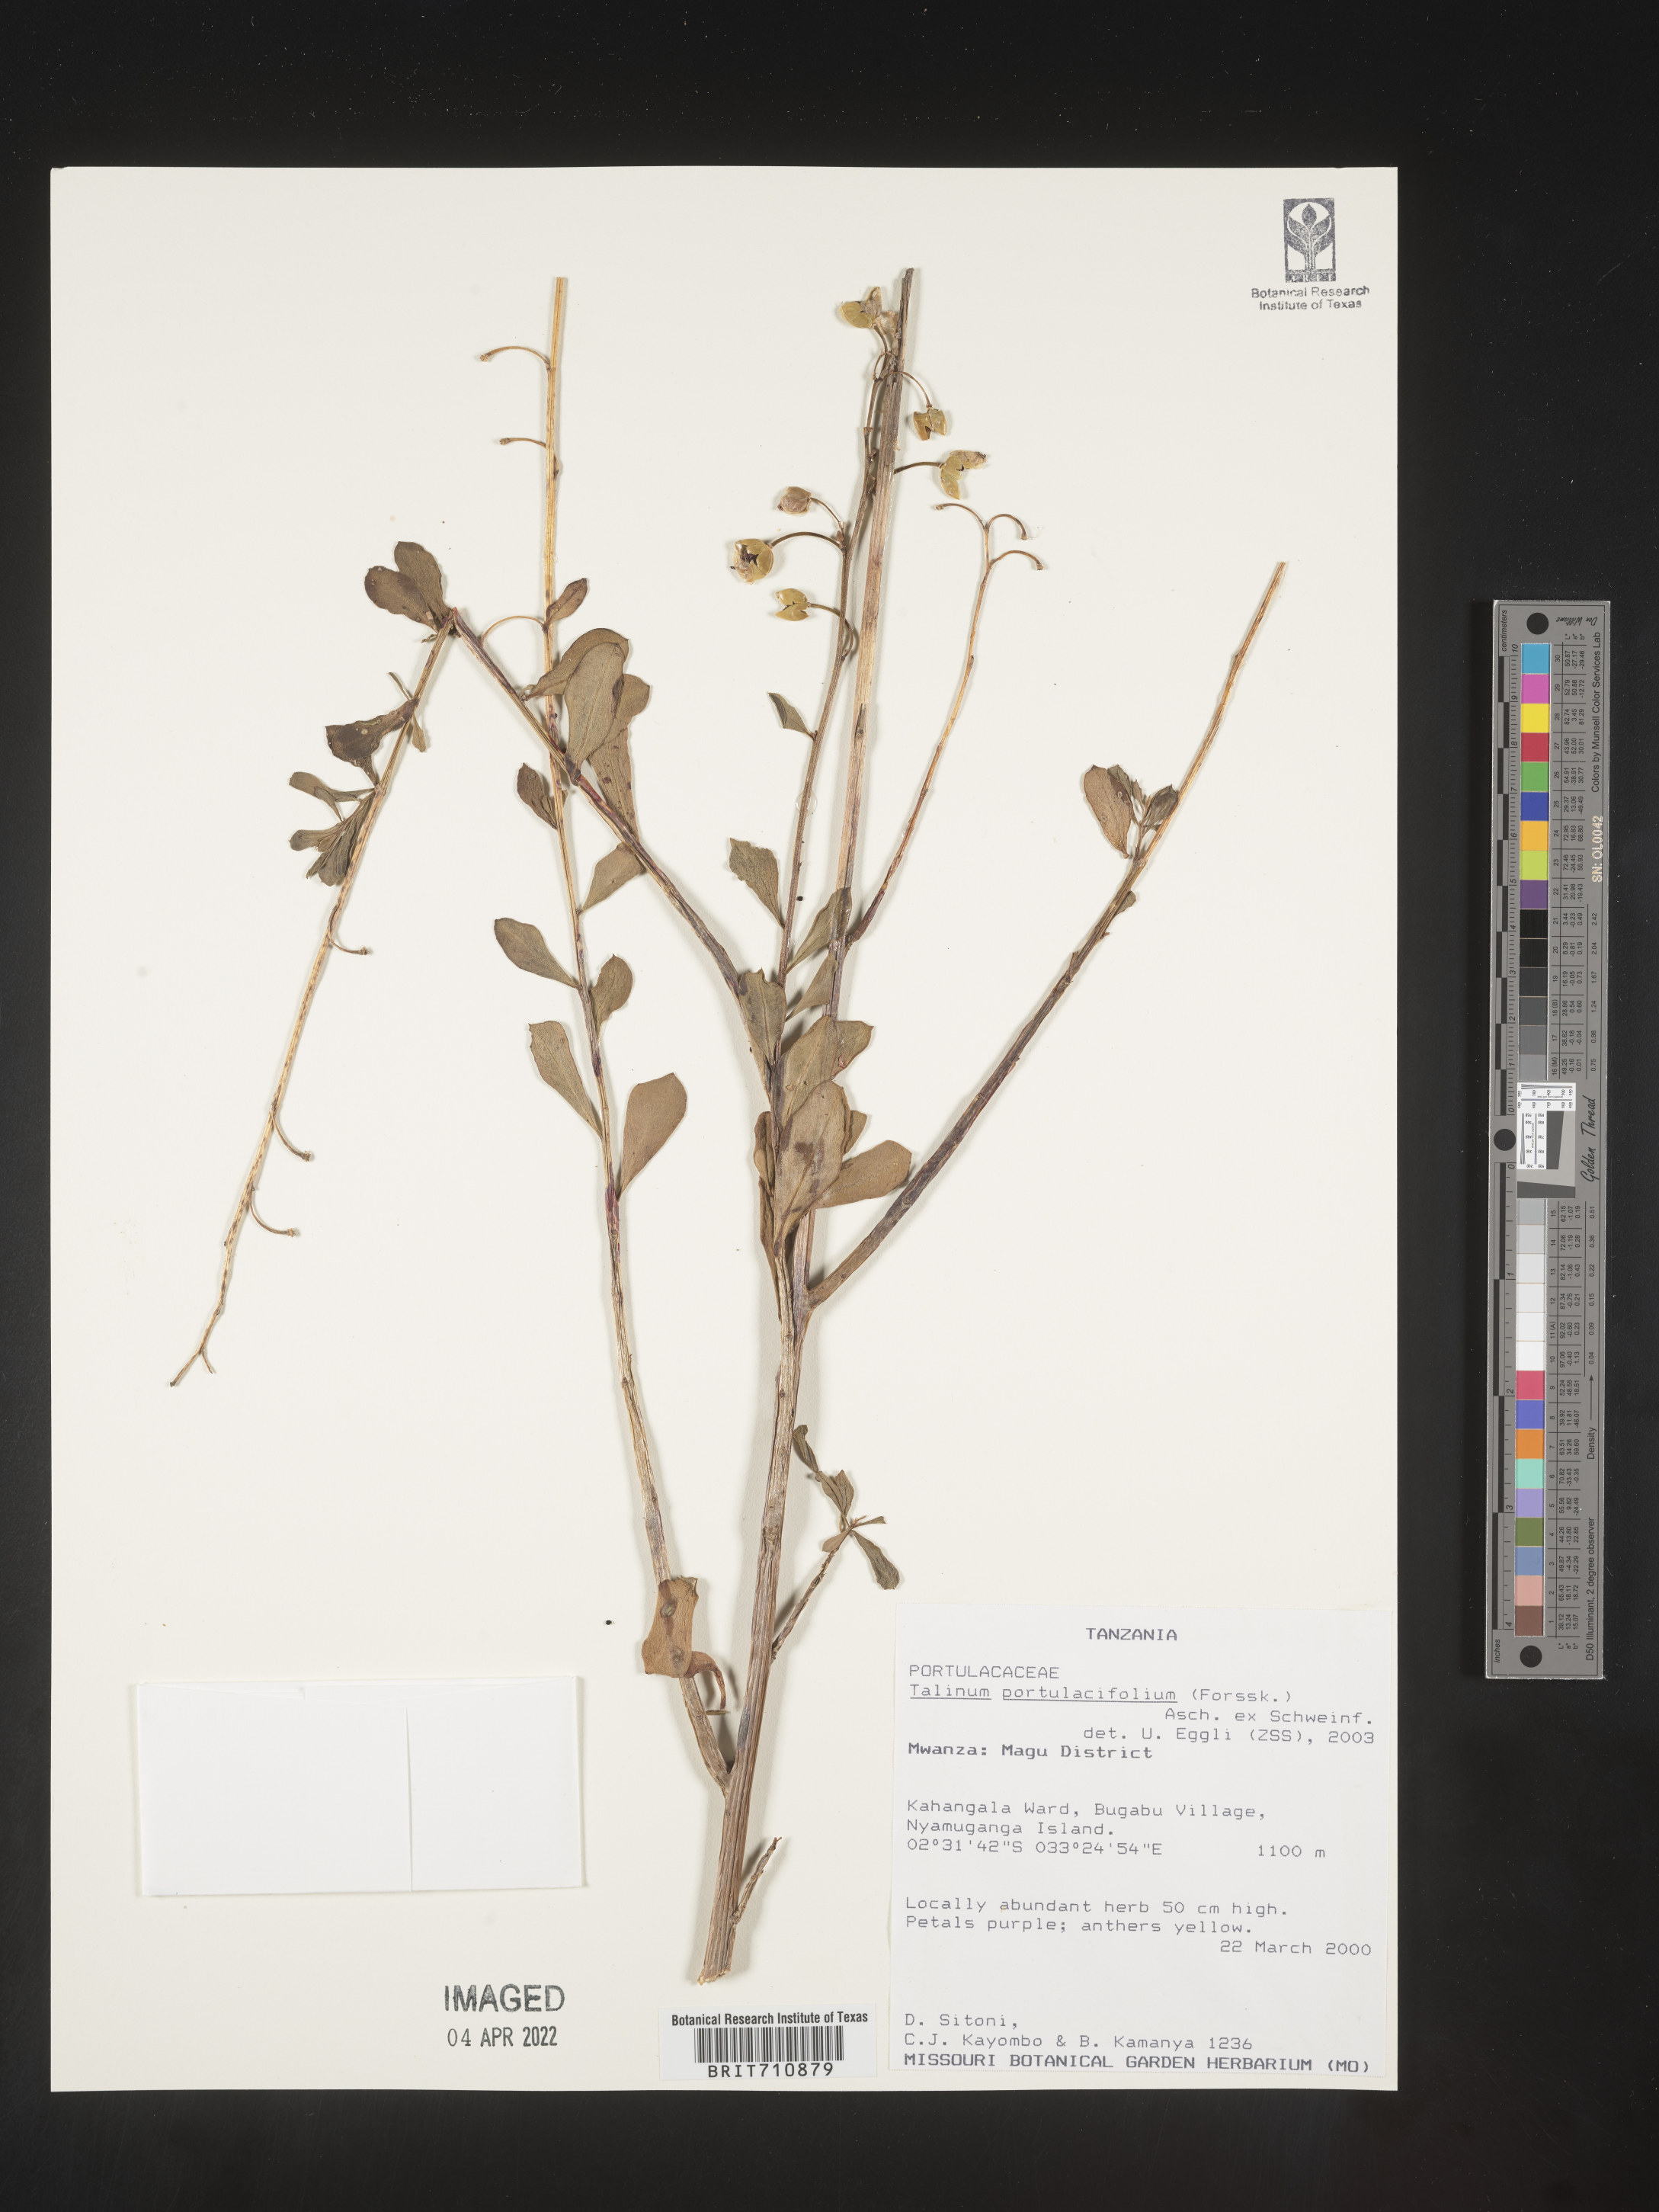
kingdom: Plantae
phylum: Tracheophyta
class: Magnoliopsida
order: Caryophyllales
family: Talinaceae
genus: Talinum
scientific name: Talinum
